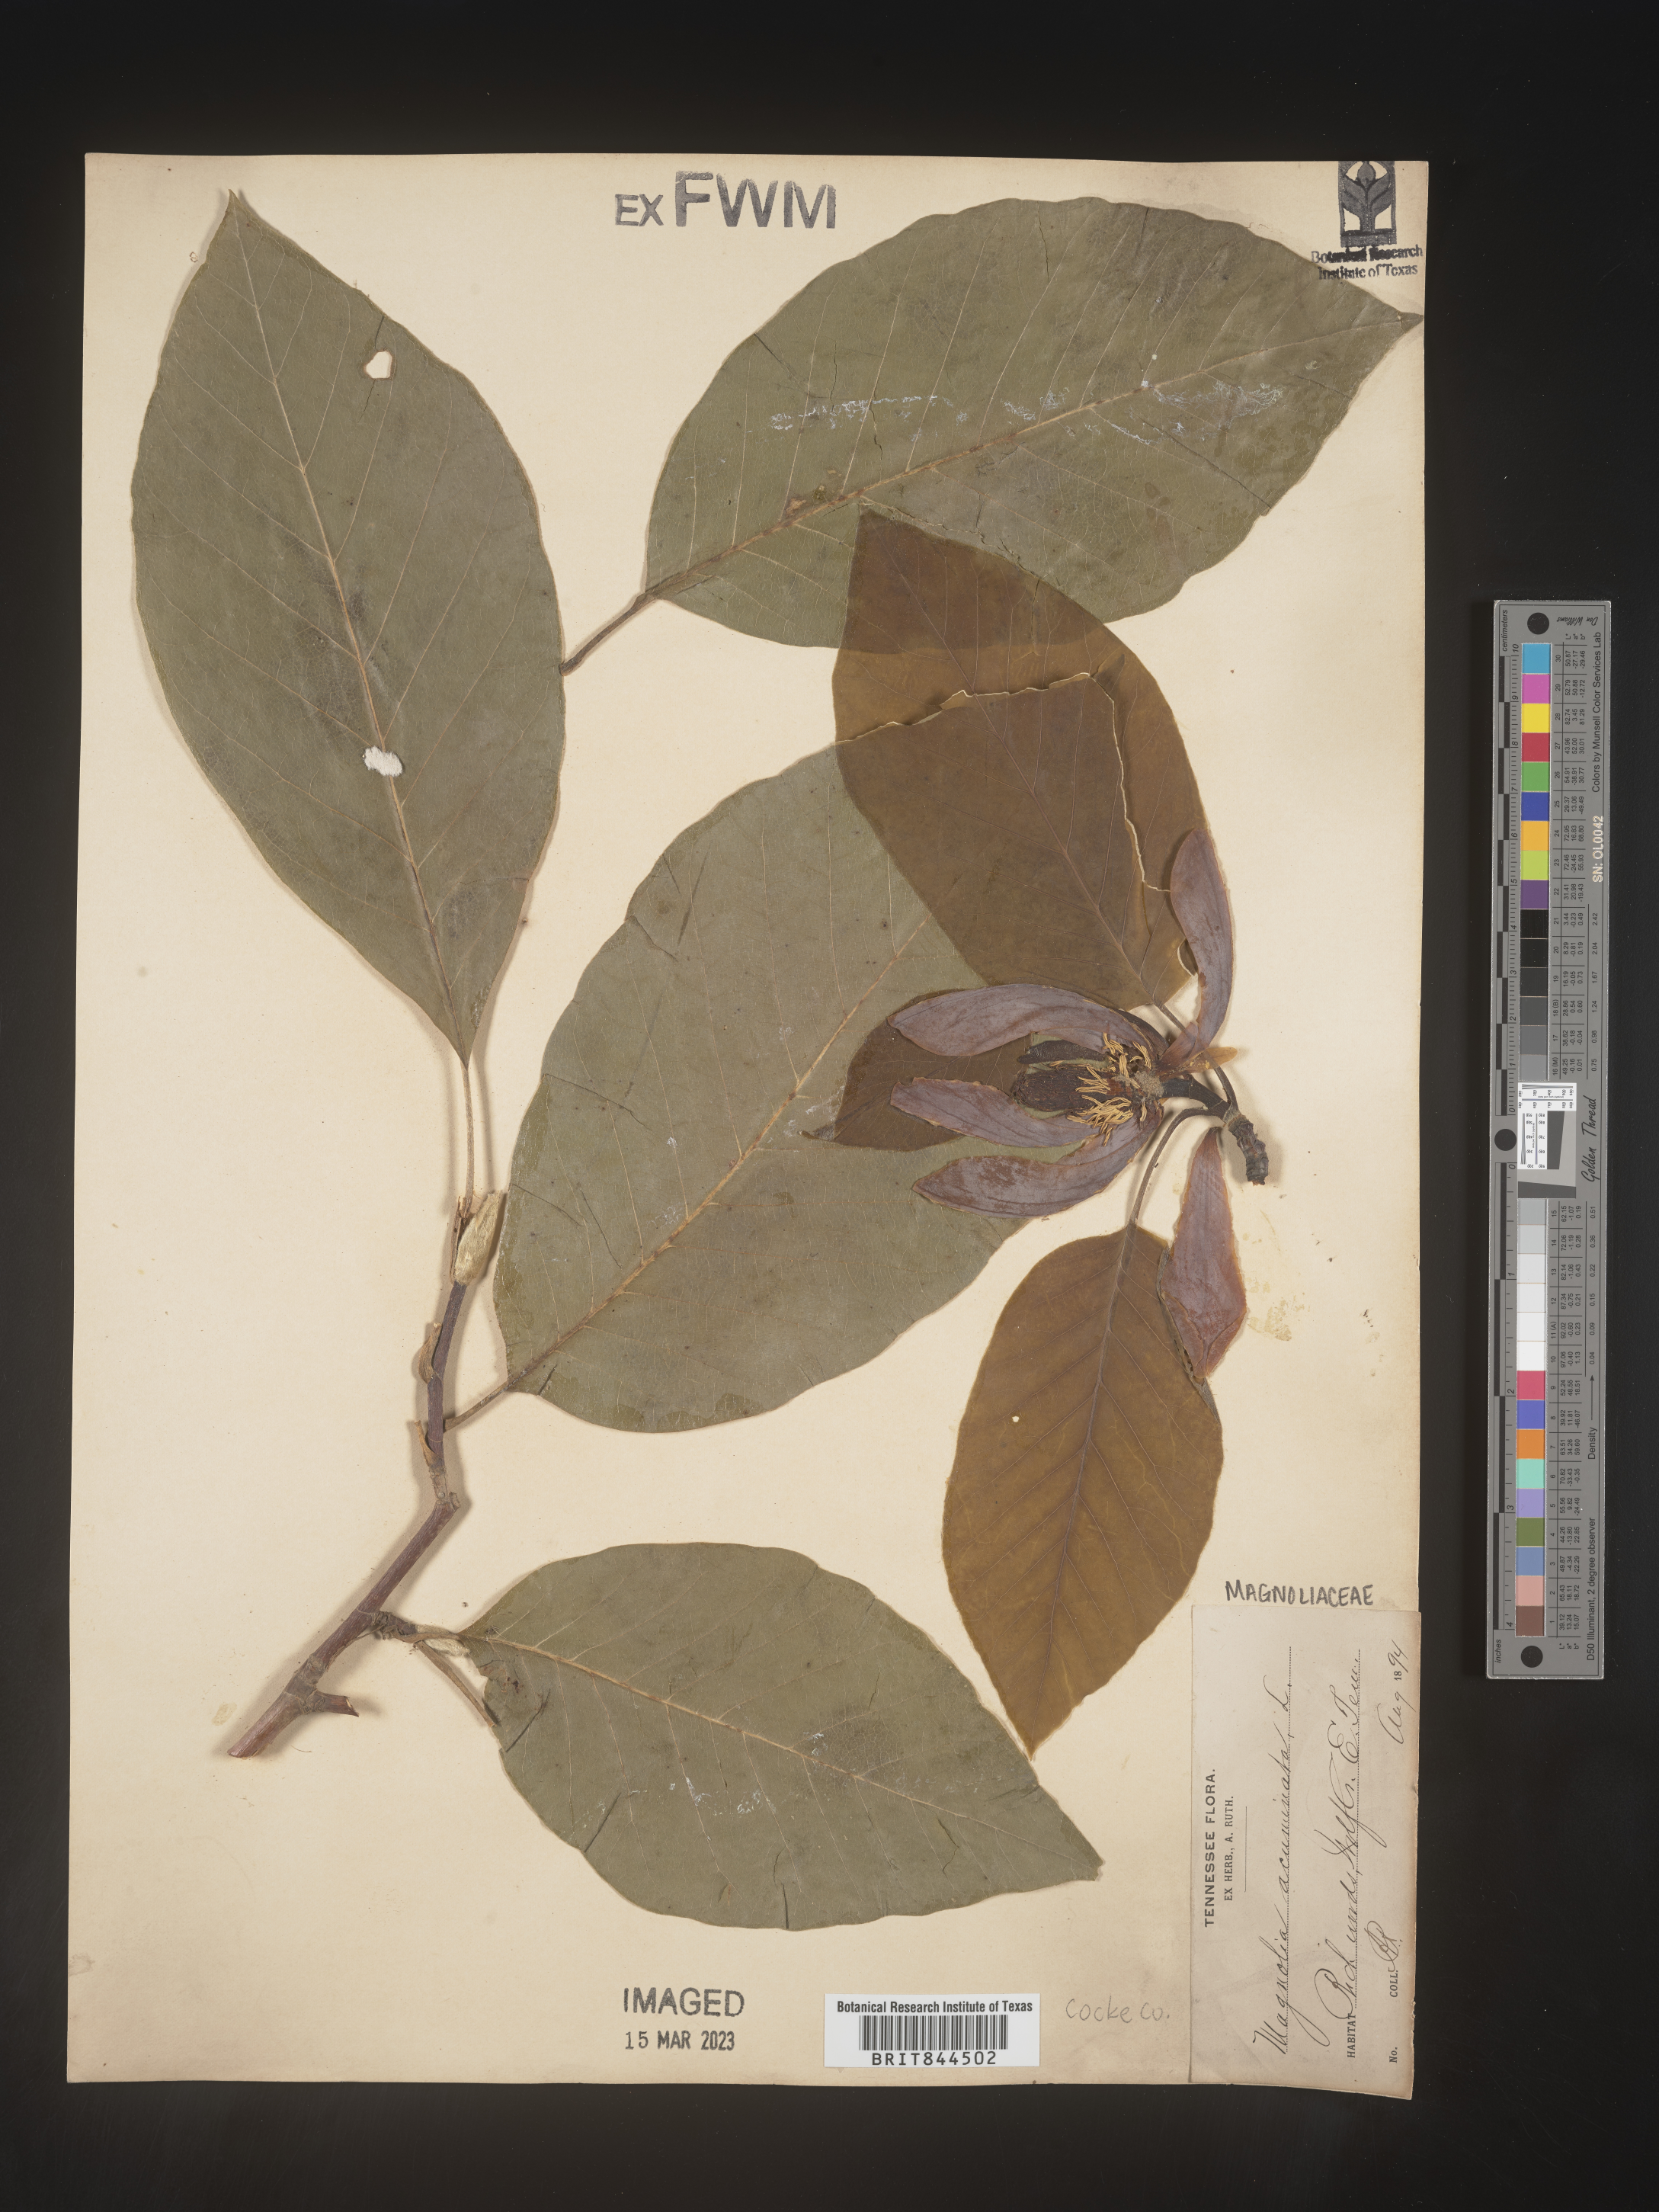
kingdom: Plantae
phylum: Tracheophyta
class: Magnoliopsida
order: Magnoliales
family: Magnoliaceae
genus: Magnolia
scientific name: Magnolia acuminata
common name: Cucumber magnolia
